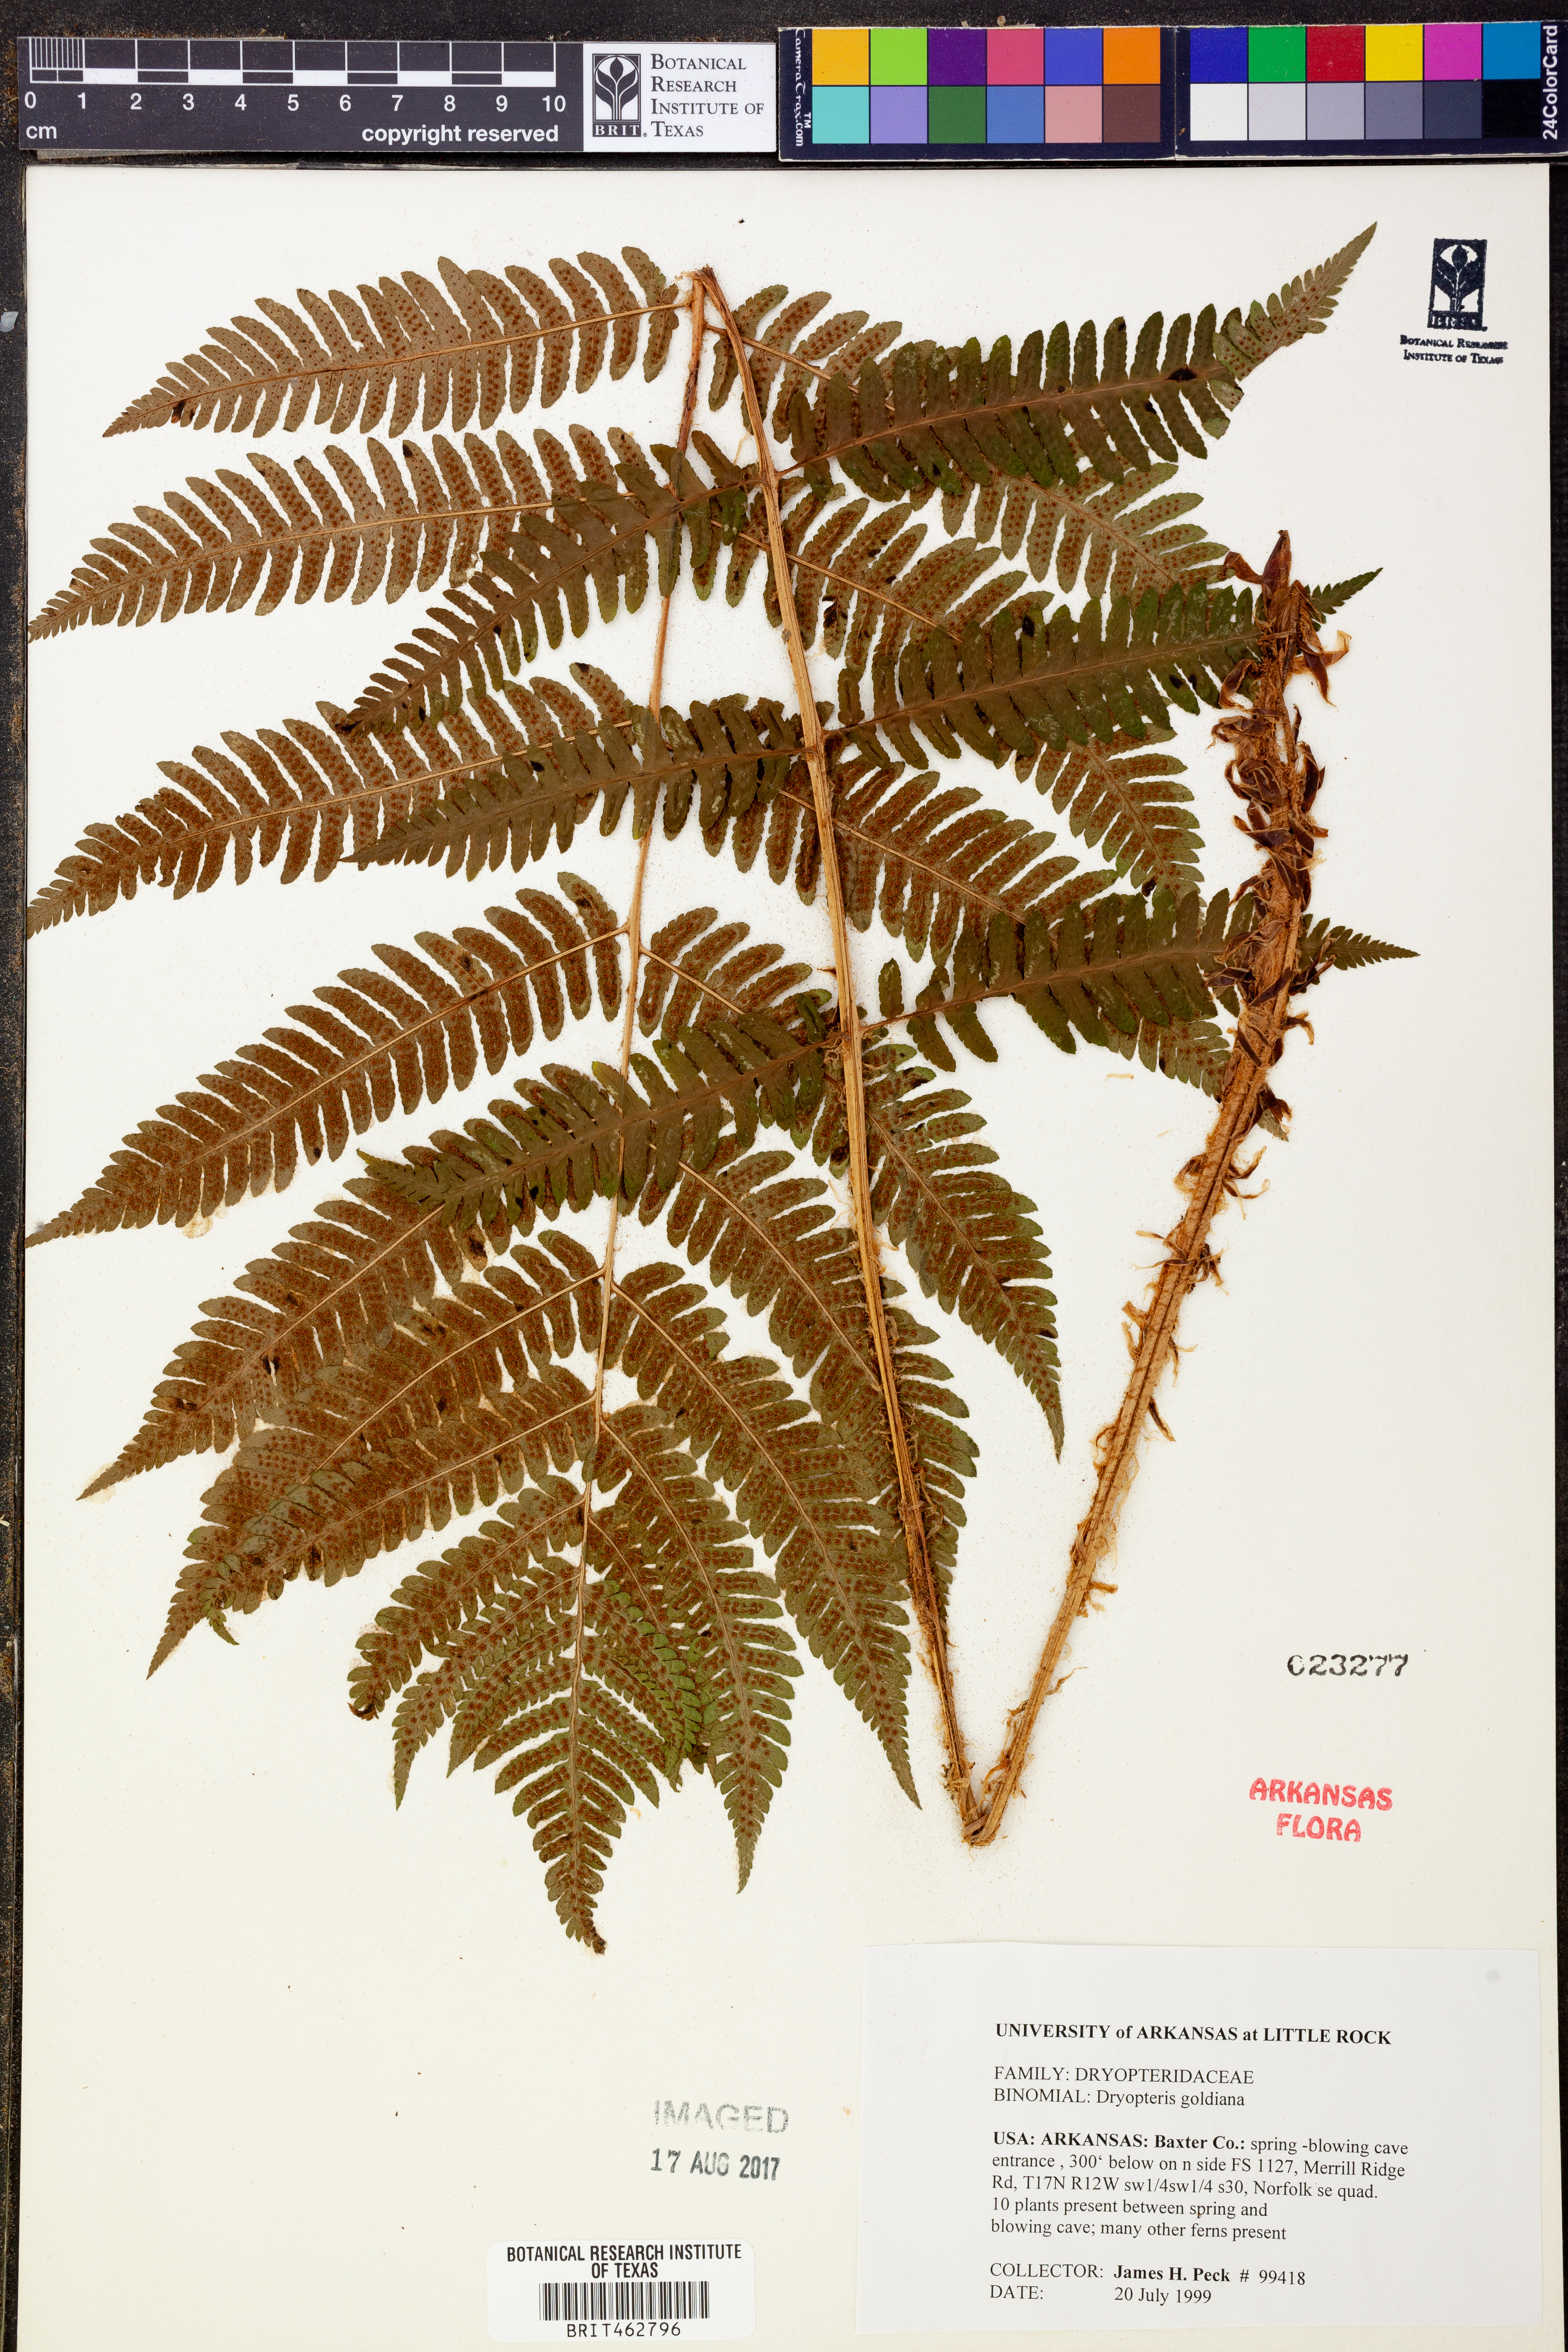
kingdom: Plantae
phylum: Tracheophyta
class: Polypodiopsida
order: Polypodiales
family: Dryopteridaceae
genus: Dryopteris
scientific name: Dryopteris goeldiana
